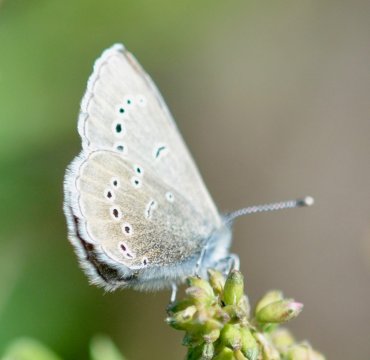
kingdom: Animalia
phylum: Arthropoda
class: Insecta
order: Lepidoptera
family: Lycaenidae
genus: Glaucopsyche
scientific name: Glaucopsyche lygdamus
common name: Silvery Blue
